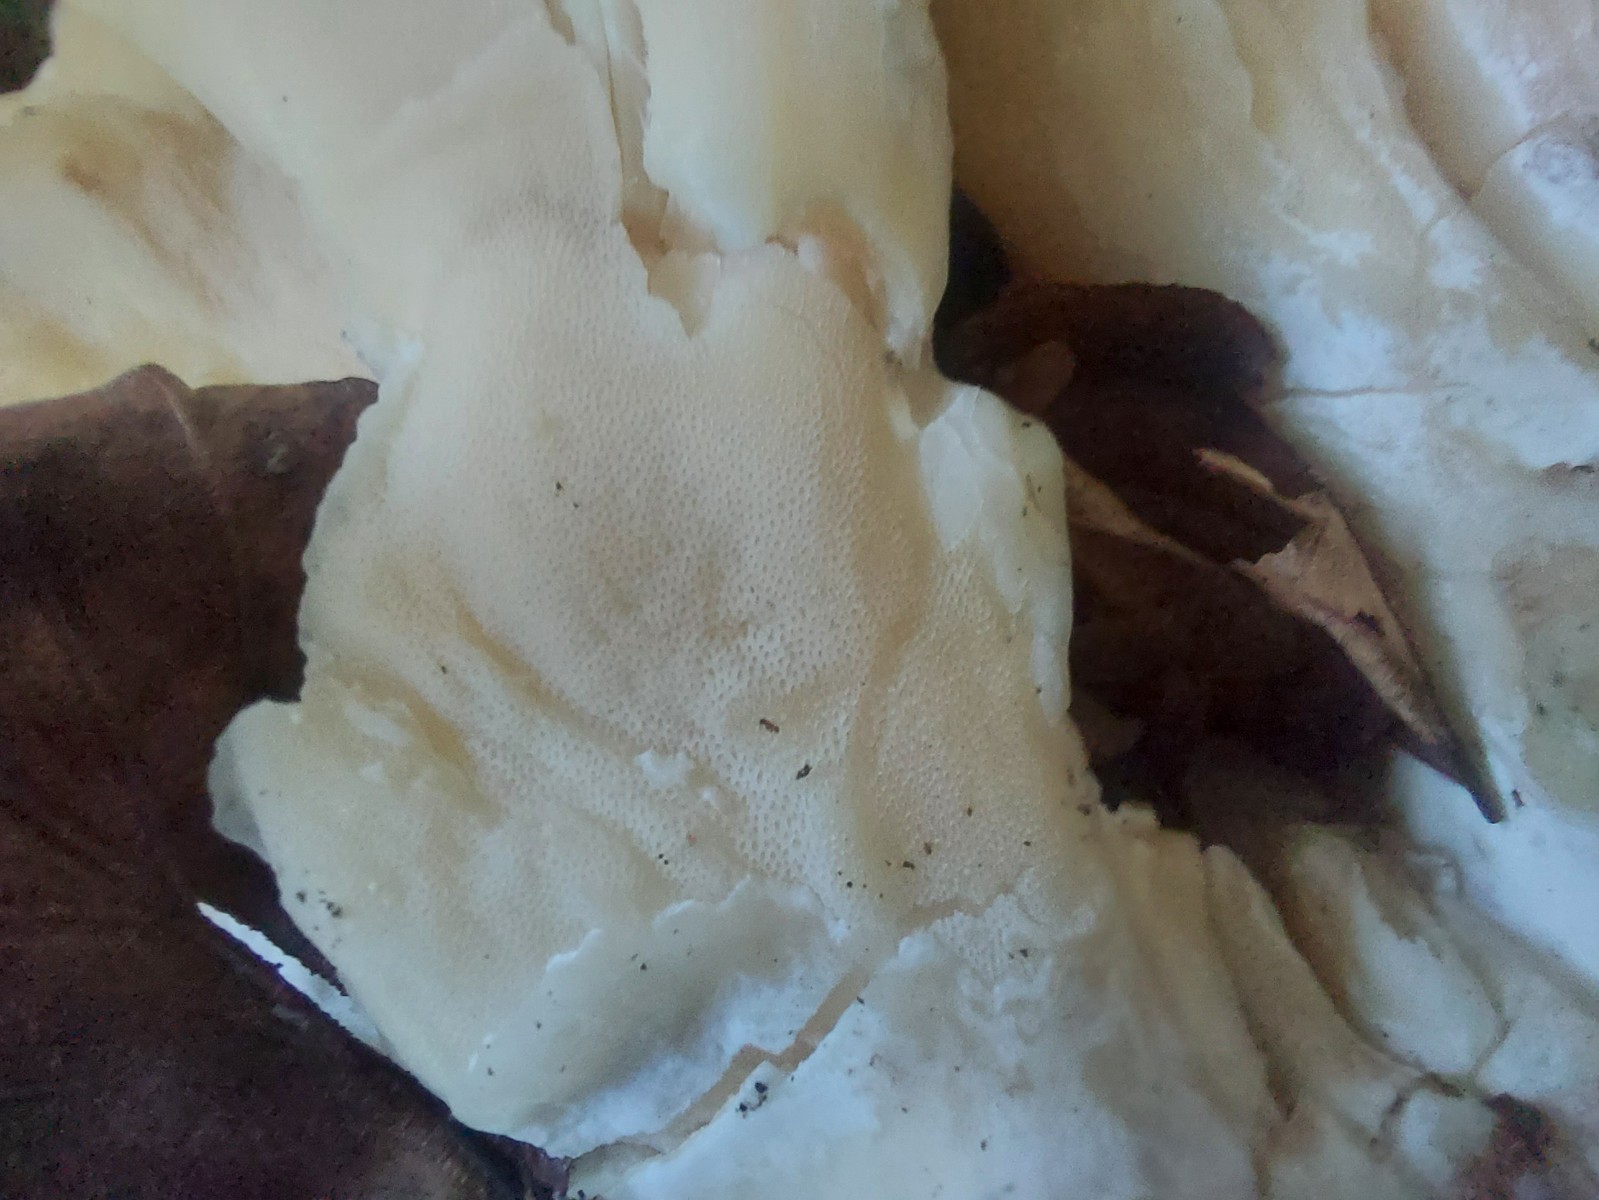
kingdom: Fungi
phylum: Basidiomycota
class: Agaricomycetes
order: Polyporales
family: Meripilaceae
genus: Meripilus
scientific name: Meripilus giganteus
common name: kæmpeporesvamp
